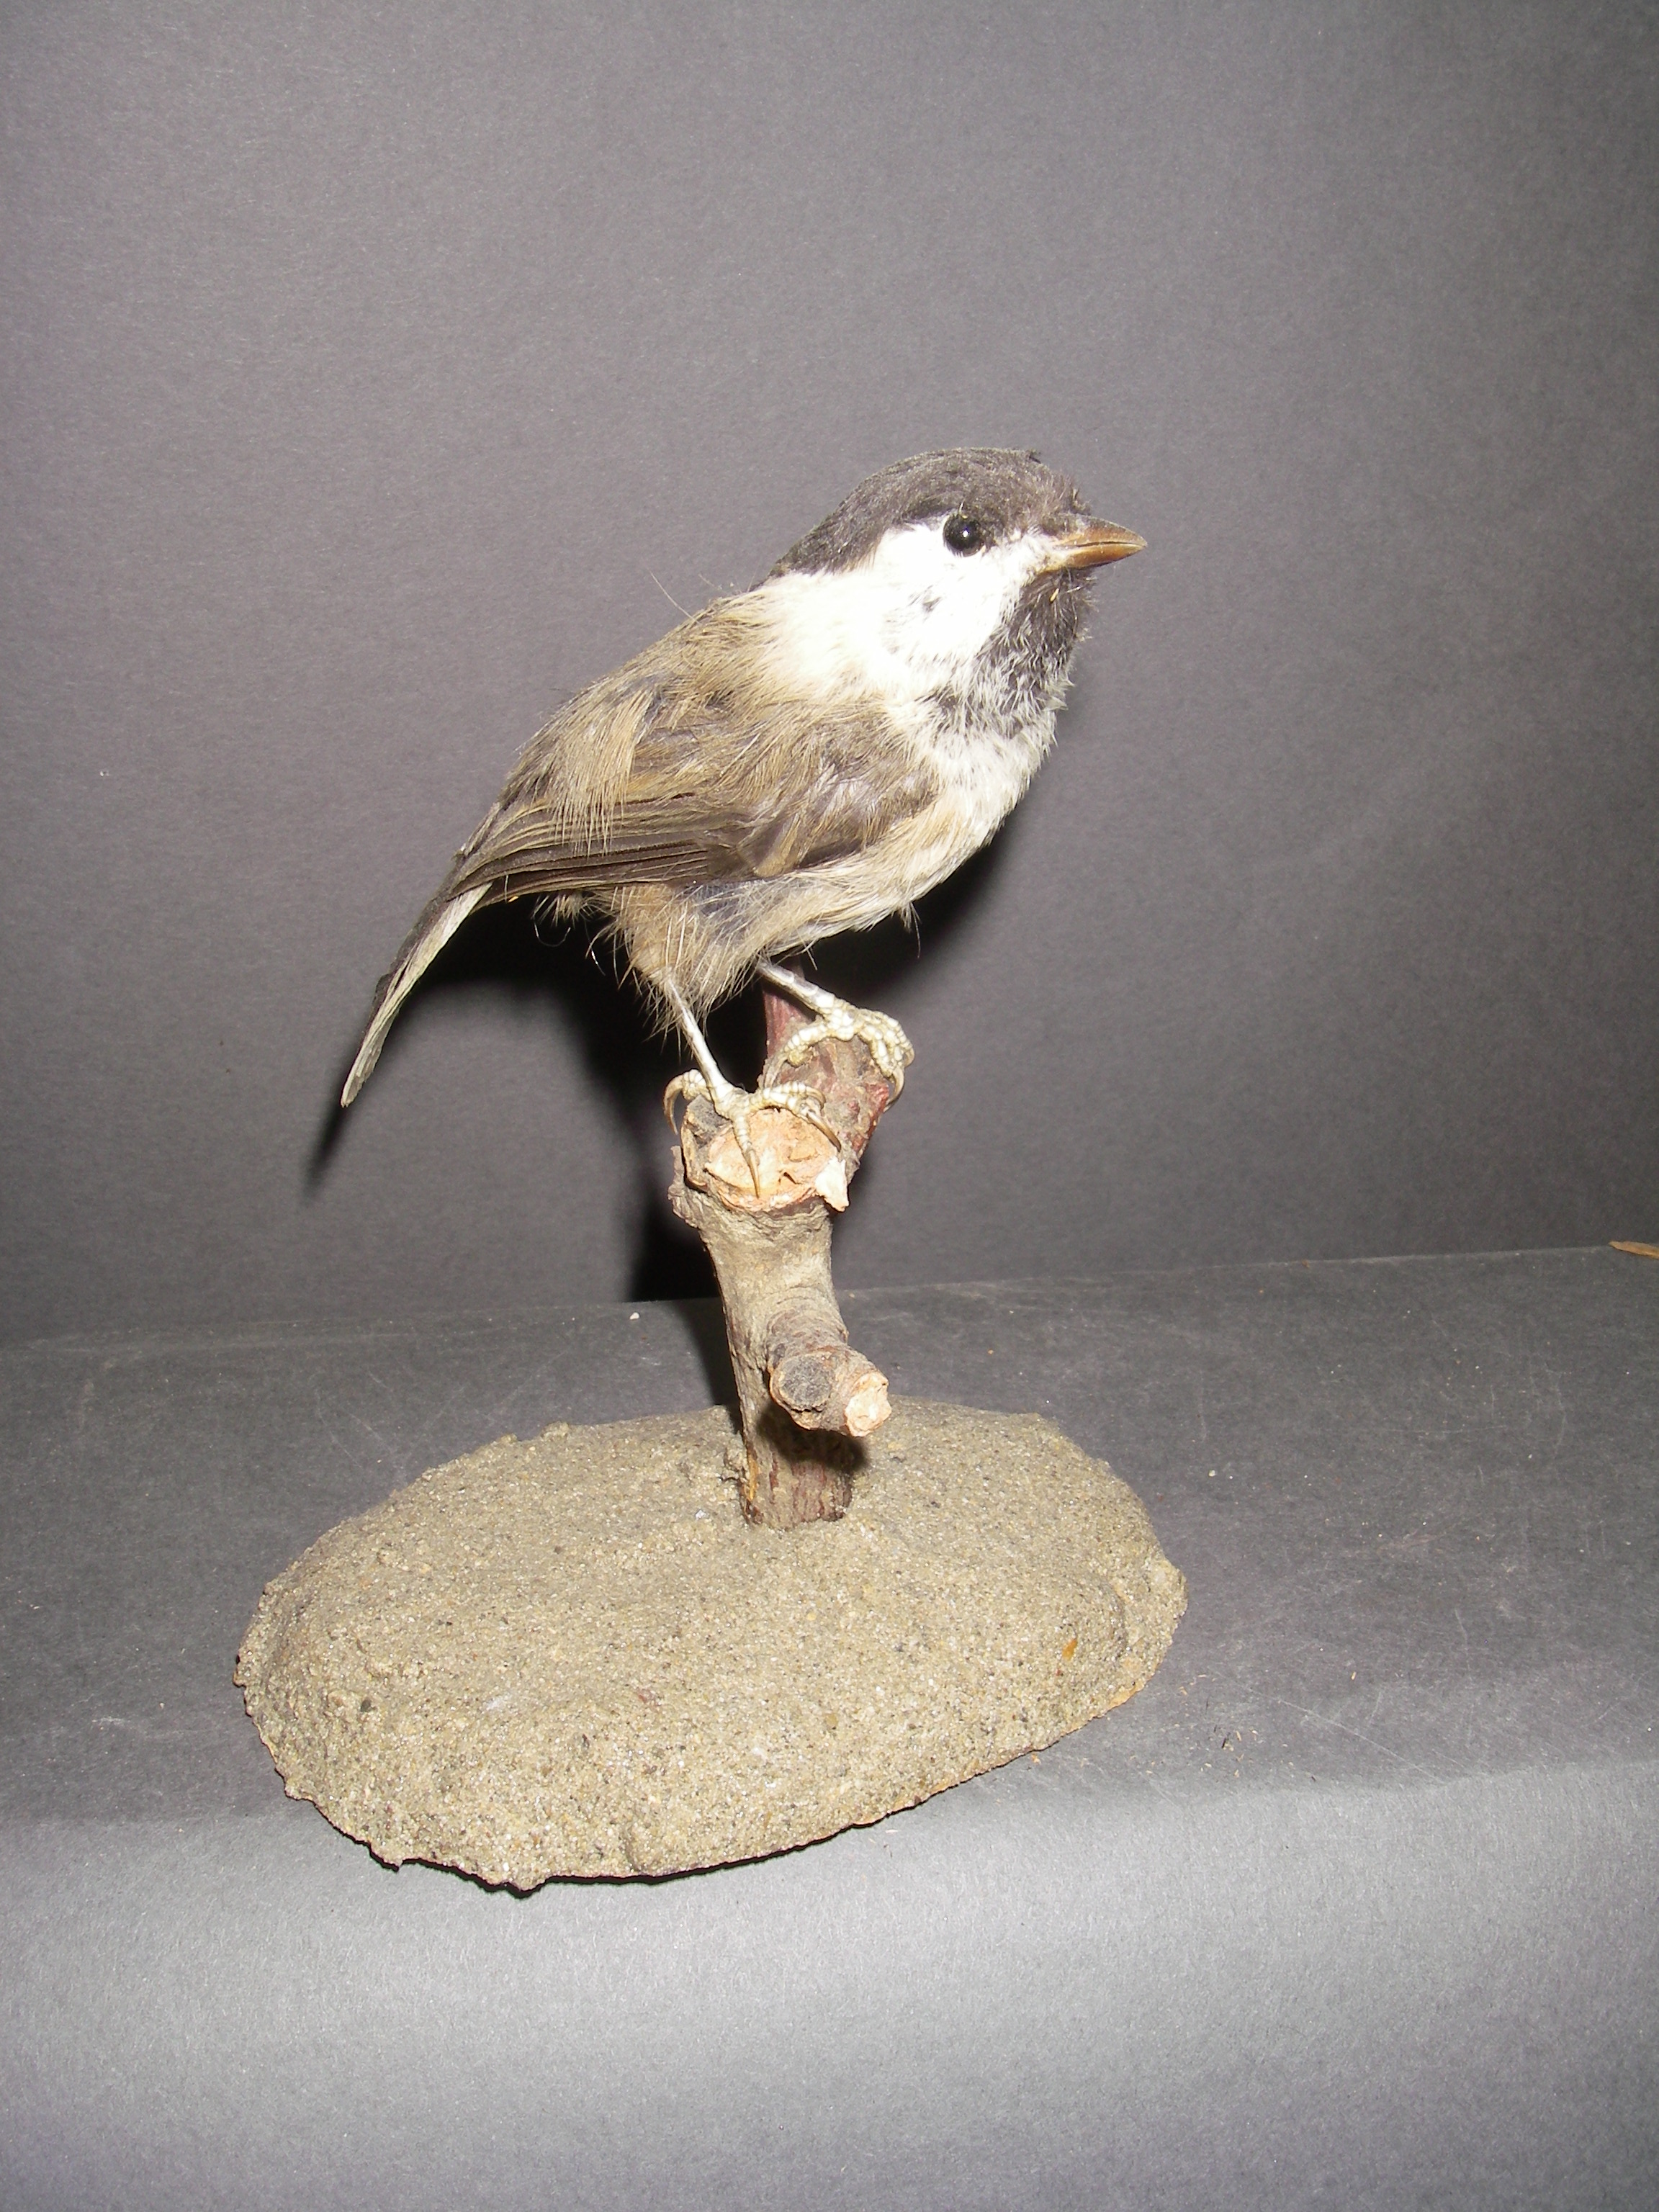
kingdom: Animalia
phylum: Chordata
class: Aves
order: Passeriformes
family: Paridae
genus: Poecile
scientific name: Poecile palustris
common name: Marsh tit
